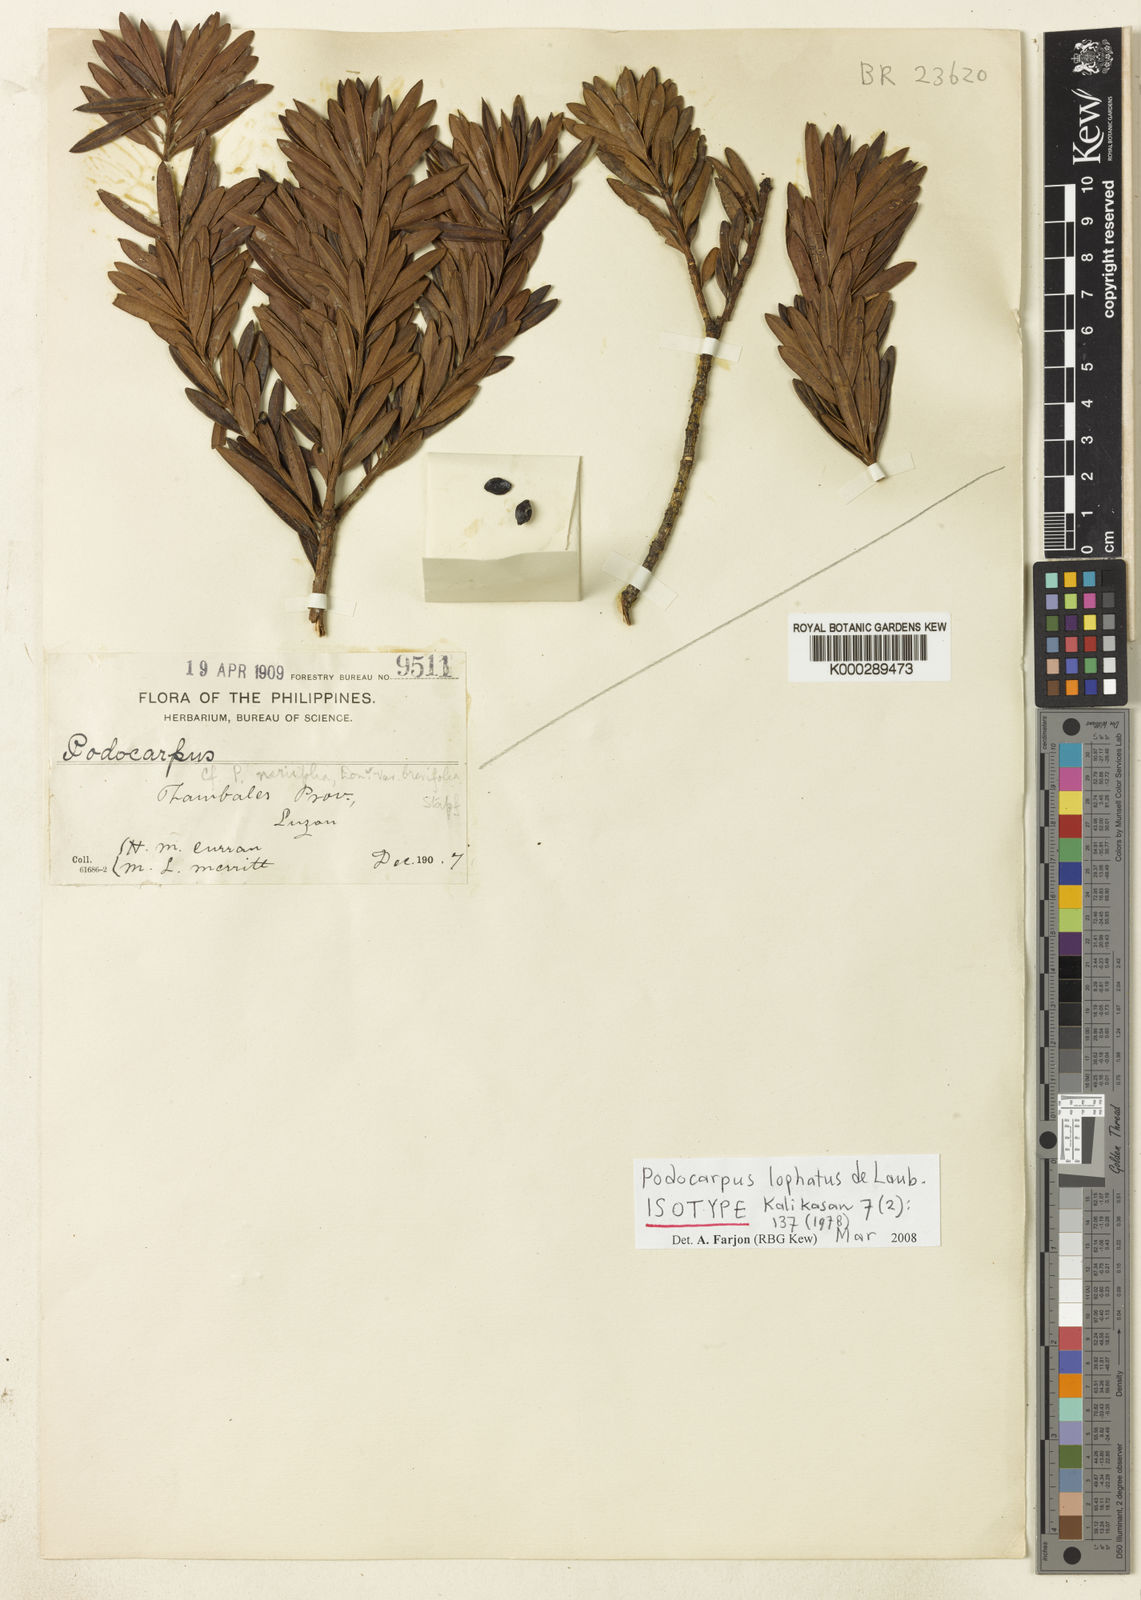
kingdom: Plantae
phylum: Tracheophyta
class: Pinopsida
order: Pinales
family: Podocarpaceae
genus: Podocarpus
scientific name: Podocarpus lophatus
